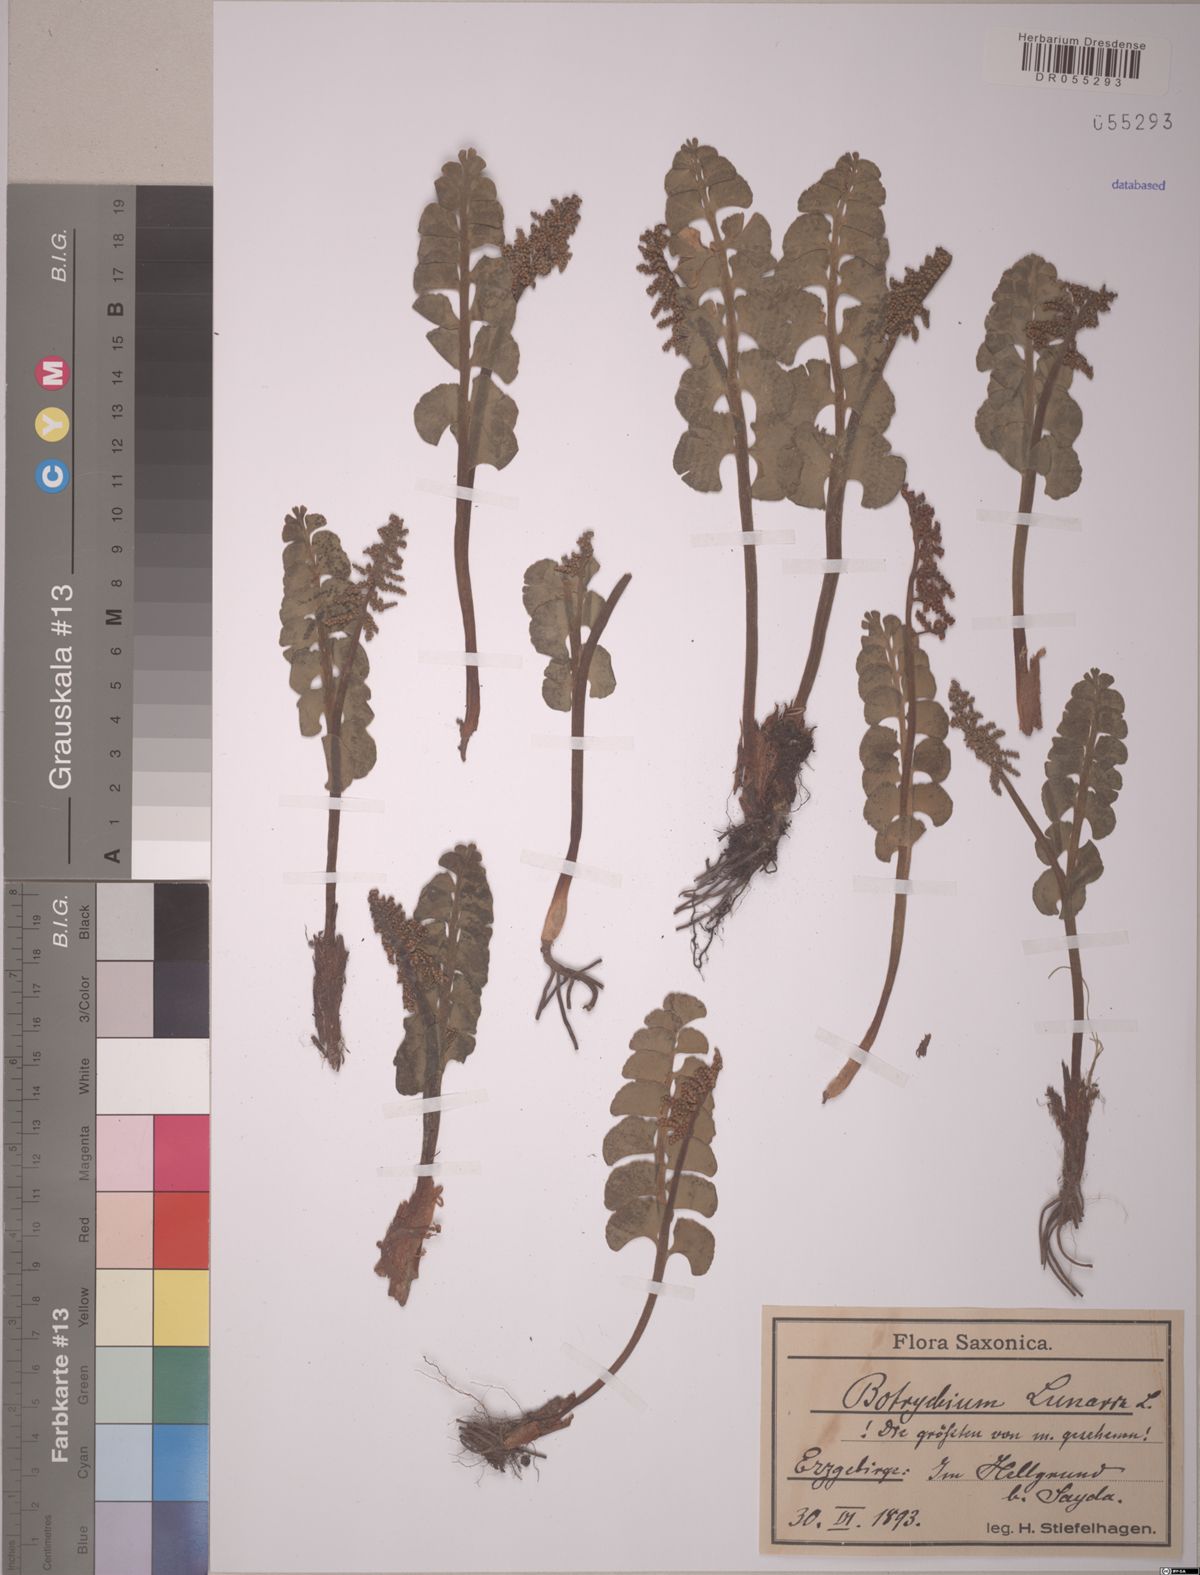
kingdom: Plantae
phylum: Tracheophyta
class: Polypodiopsida
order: Ophioglossales
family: Ophioglossaceae
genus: Botrychium
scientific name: Botrychium lunaria
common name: Moonwort
